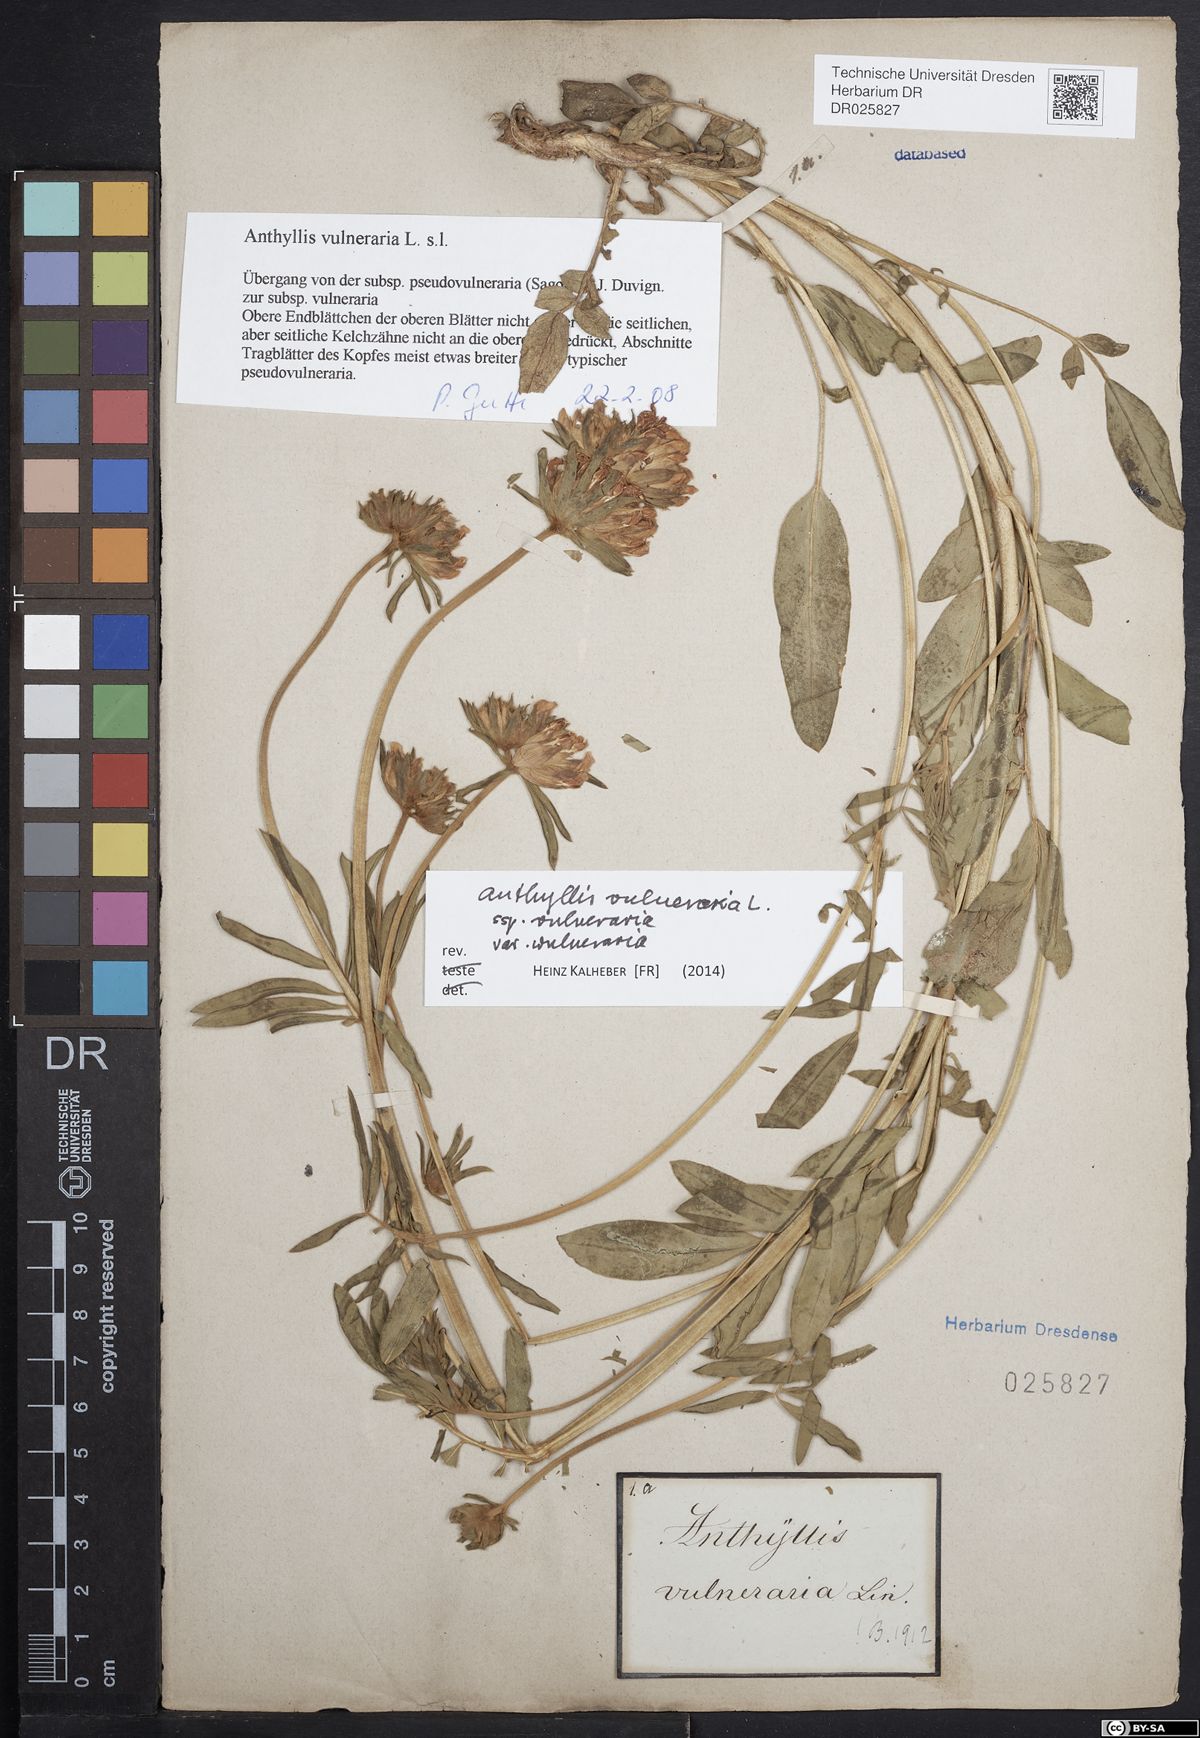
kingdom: Plantae
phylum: Tracheophyta
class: Magnoliopsida
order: Fabales
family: Fabaceae
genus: Anthyllis
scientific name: Anthyllis vulneraria
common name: Kidney vetch
